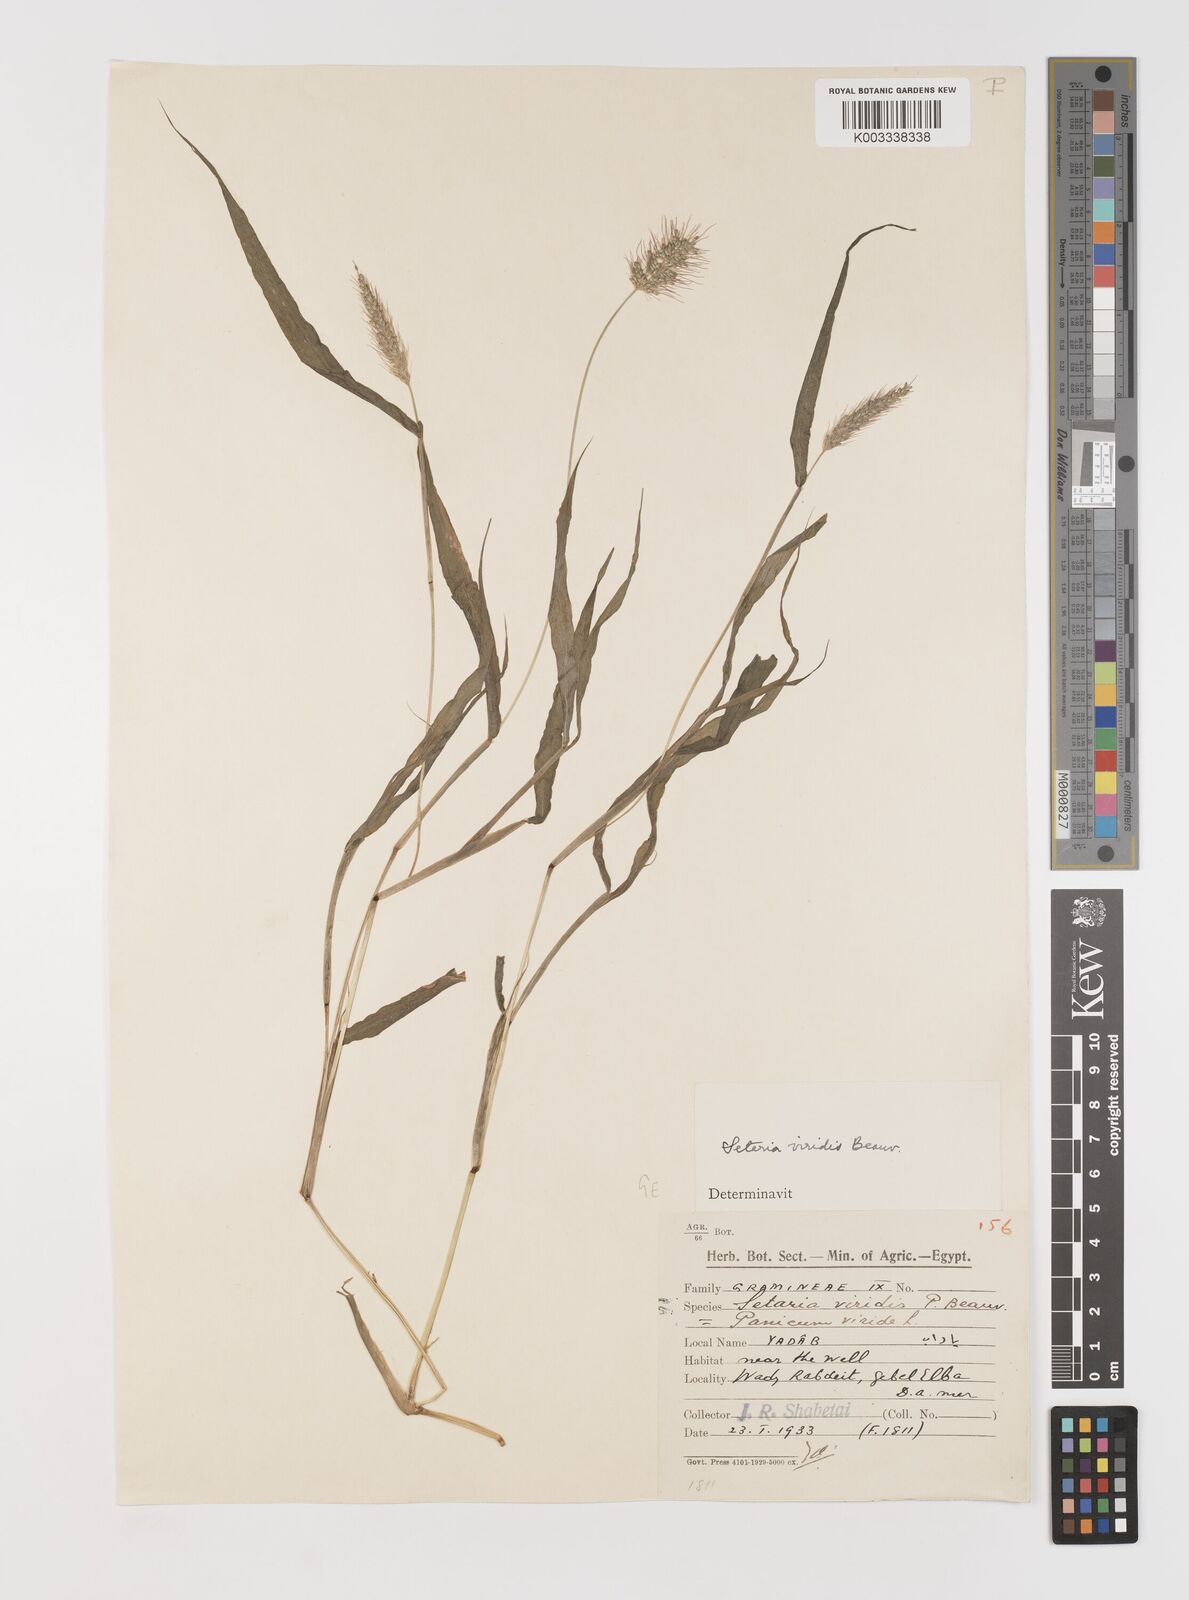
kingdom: Plantae
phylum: Tracheophyta
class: Liliopsida
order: Poales
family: Poaceae
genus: Setaria
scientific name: Setaria verticillata
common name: Hooked bristlegrass
